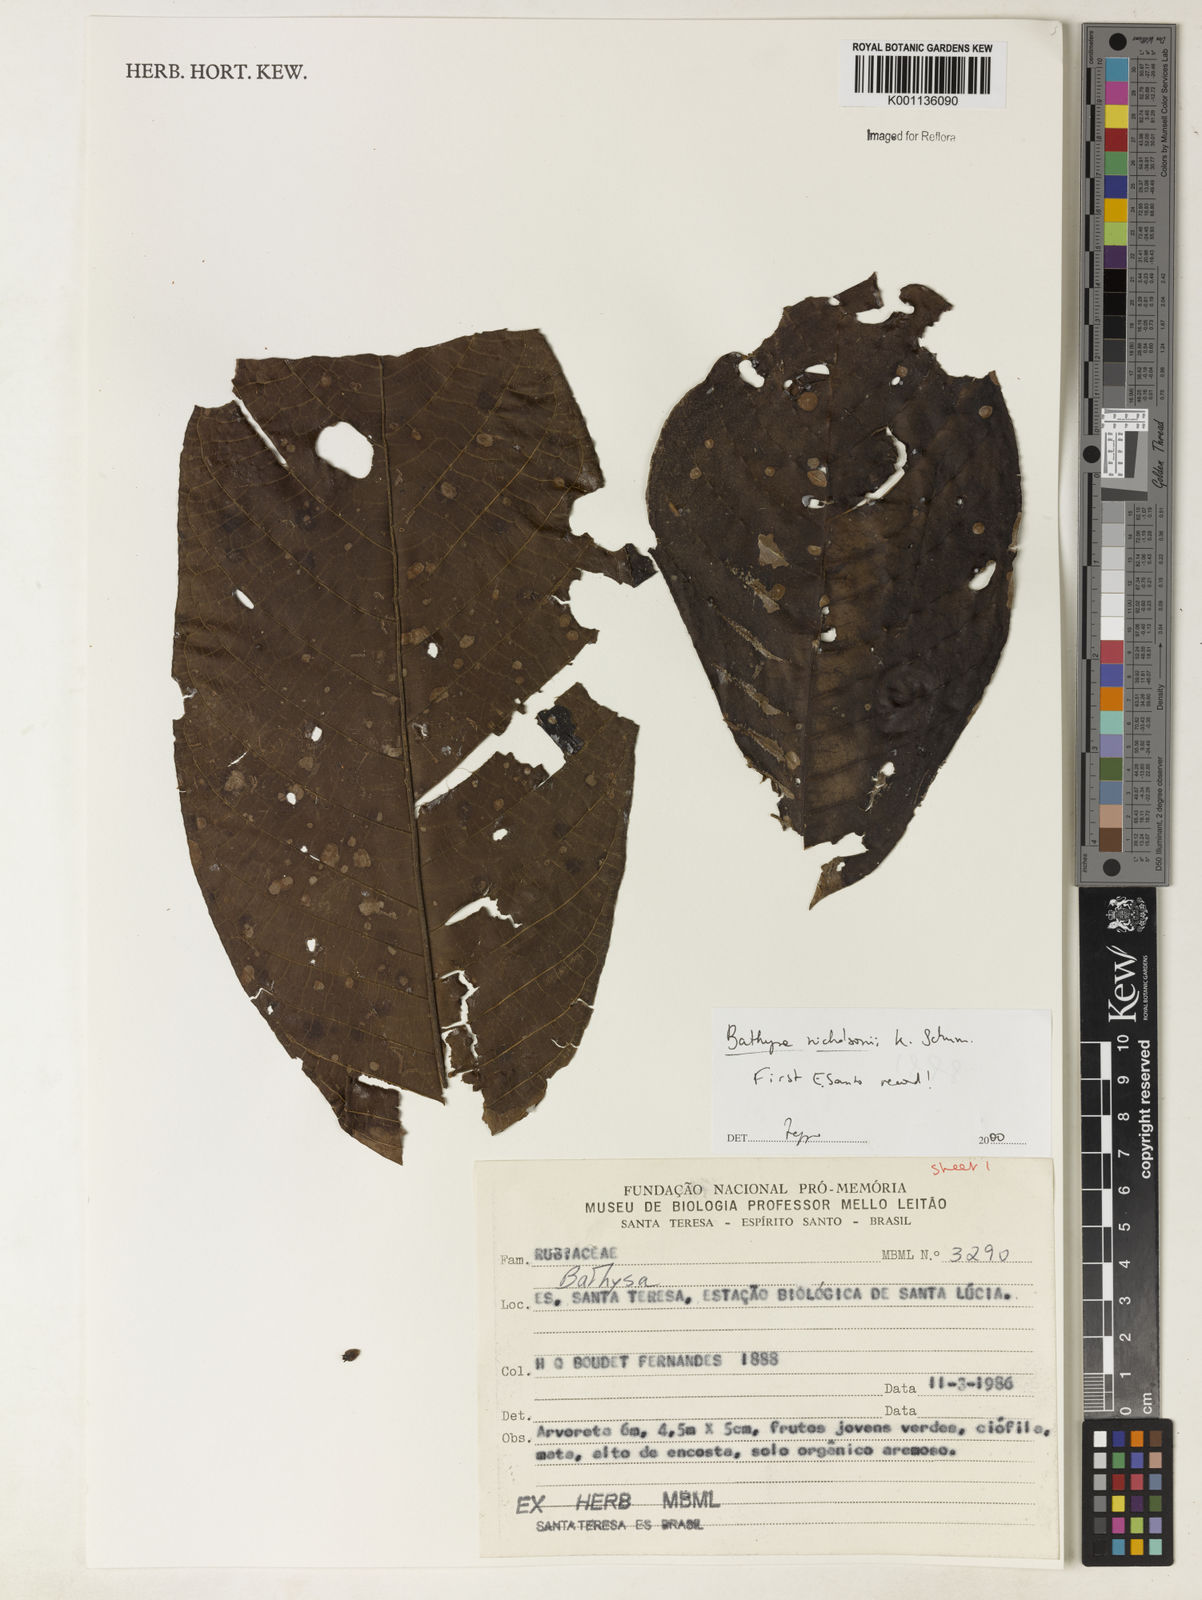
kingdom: Plantae
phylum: Tracheophyta
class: Magnoliopsida
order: Gentianales
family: Rubiaceae
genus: Bathysa
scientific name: Bathysa nicholsonii
